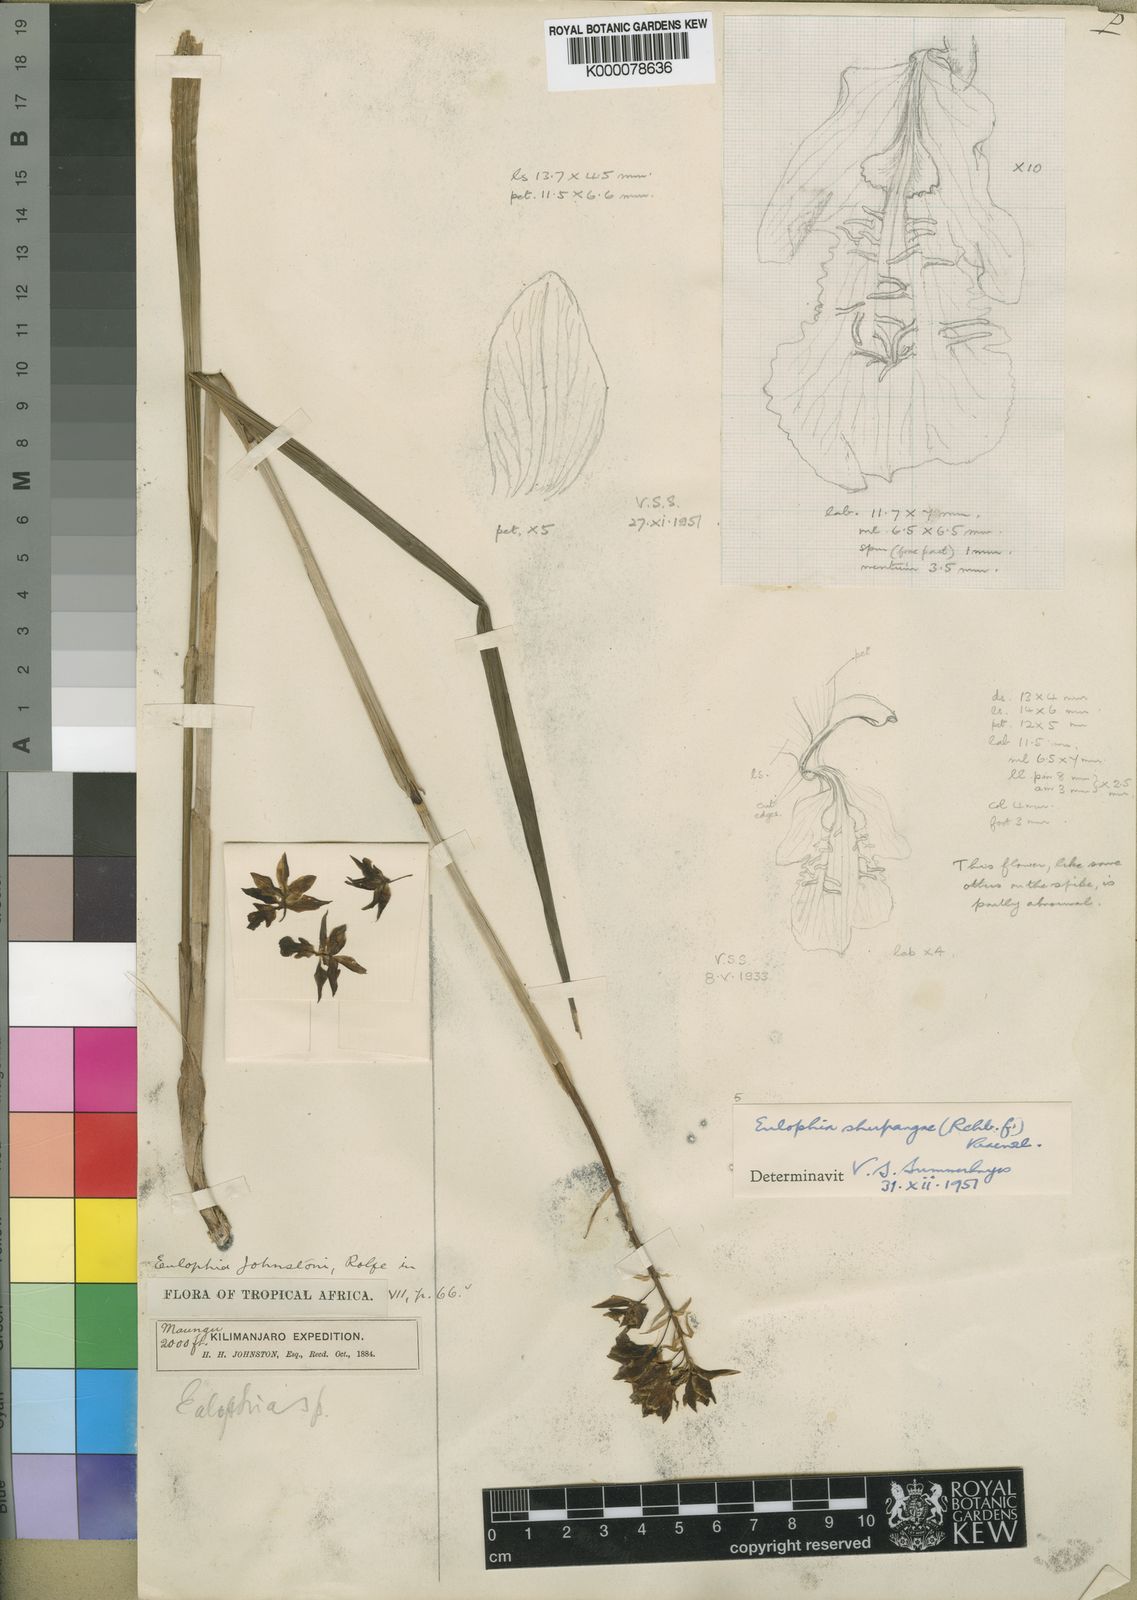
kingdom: Plantae
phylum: Tracheophyta
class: Liliopsida
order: Asparagales
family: Orchidaceae
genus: Eulophia
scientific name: Eulophia odontoglossa
